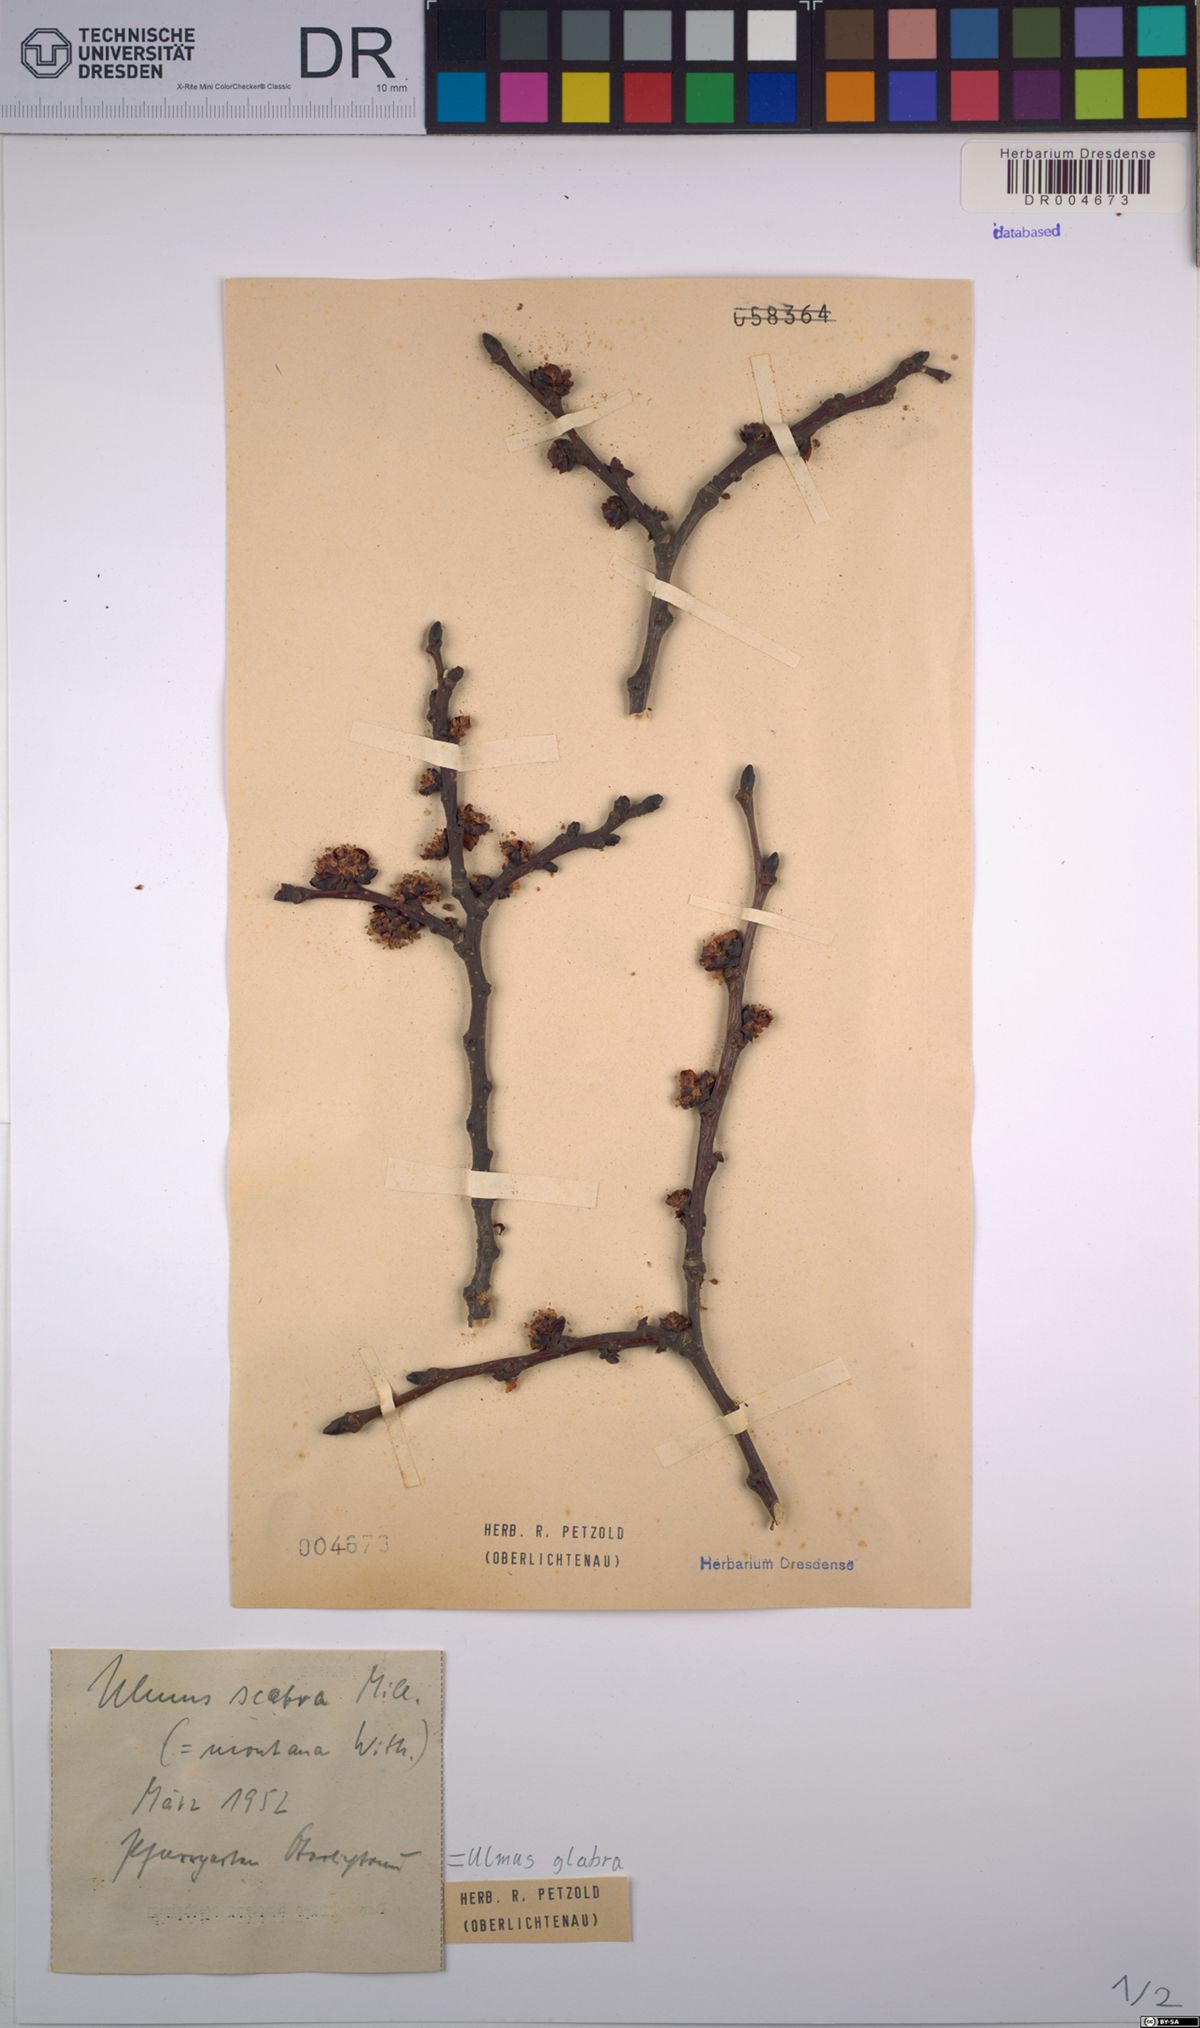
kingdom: Plantae
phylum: Tracheophyta
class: Magnoliopsida
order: Rosales
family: Ulmaceae
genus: Ulmus
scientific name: Ulmus glabra
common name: Wych elm
